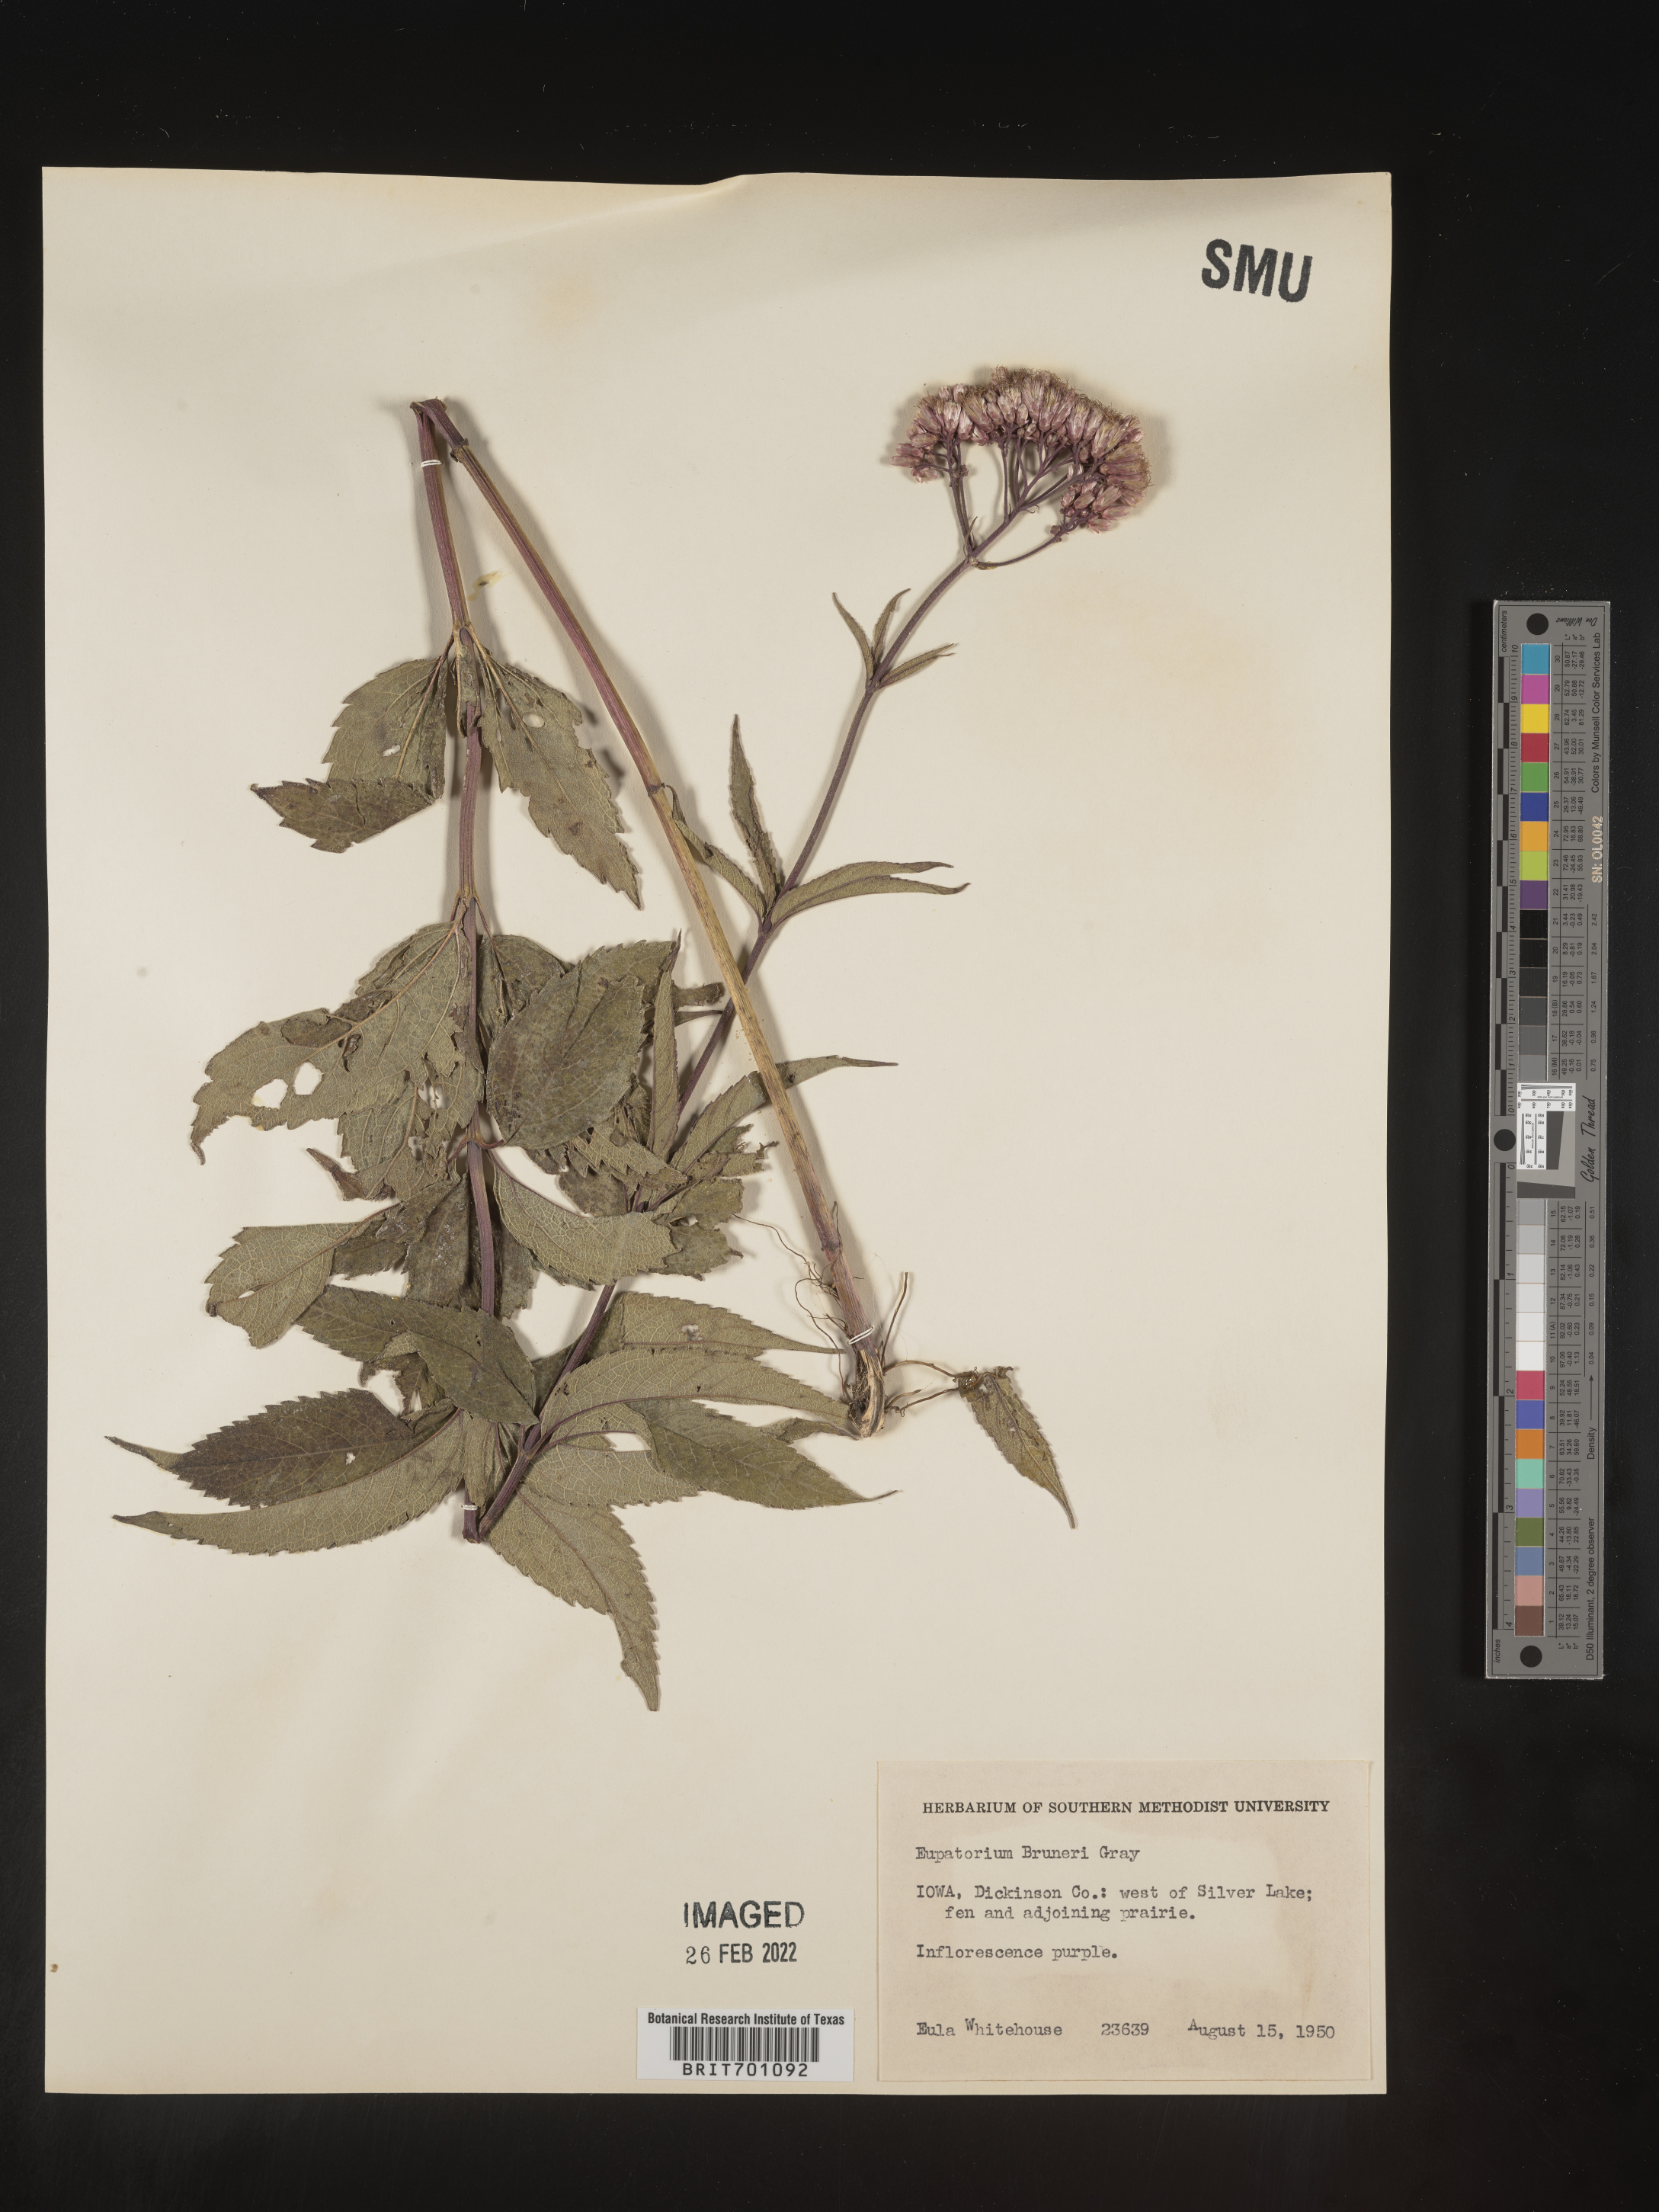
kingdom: Plantae
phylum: Tracheophyta
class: Magnoliopsida
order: Asterales
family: Asteraceae
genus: Eupatorium
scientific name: Eupatorium
